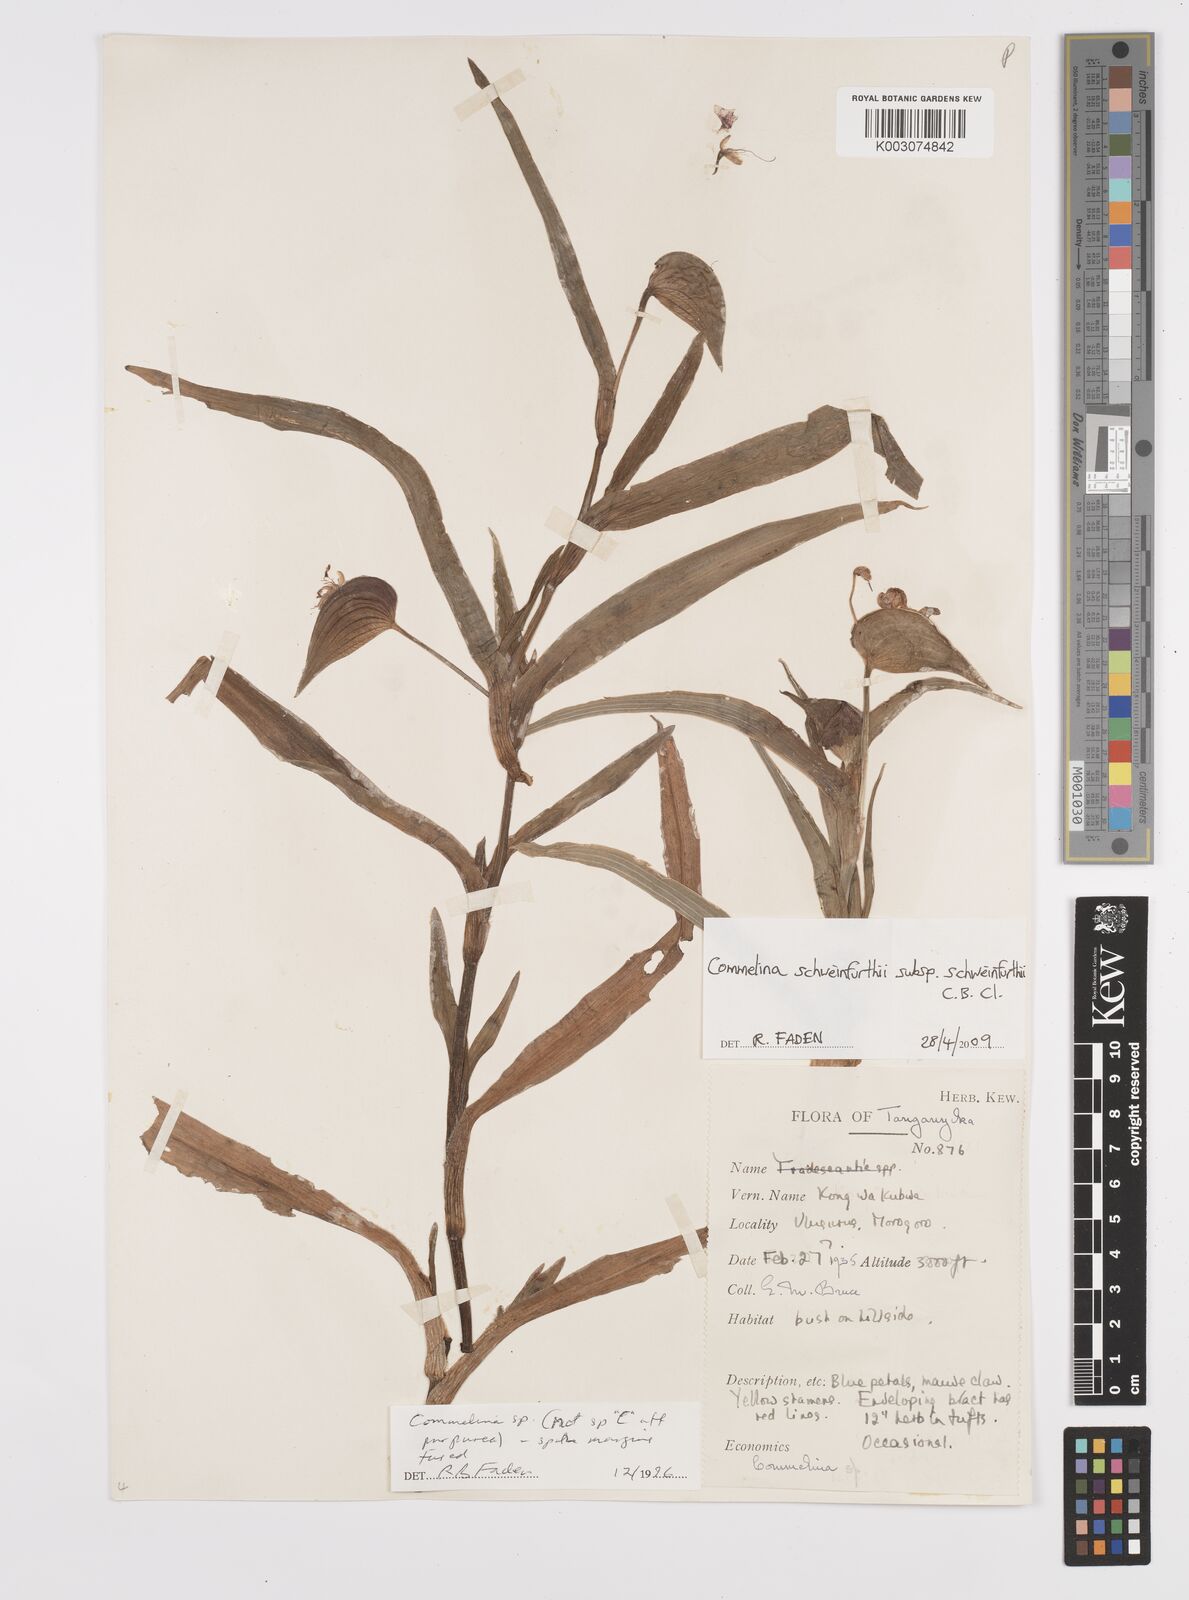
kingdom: Plantae
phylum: Tracheophyta
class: Liliopsida
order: Commelinales
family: Commelinaceae
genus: Commelina
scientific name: Commelina schweinfurthii
